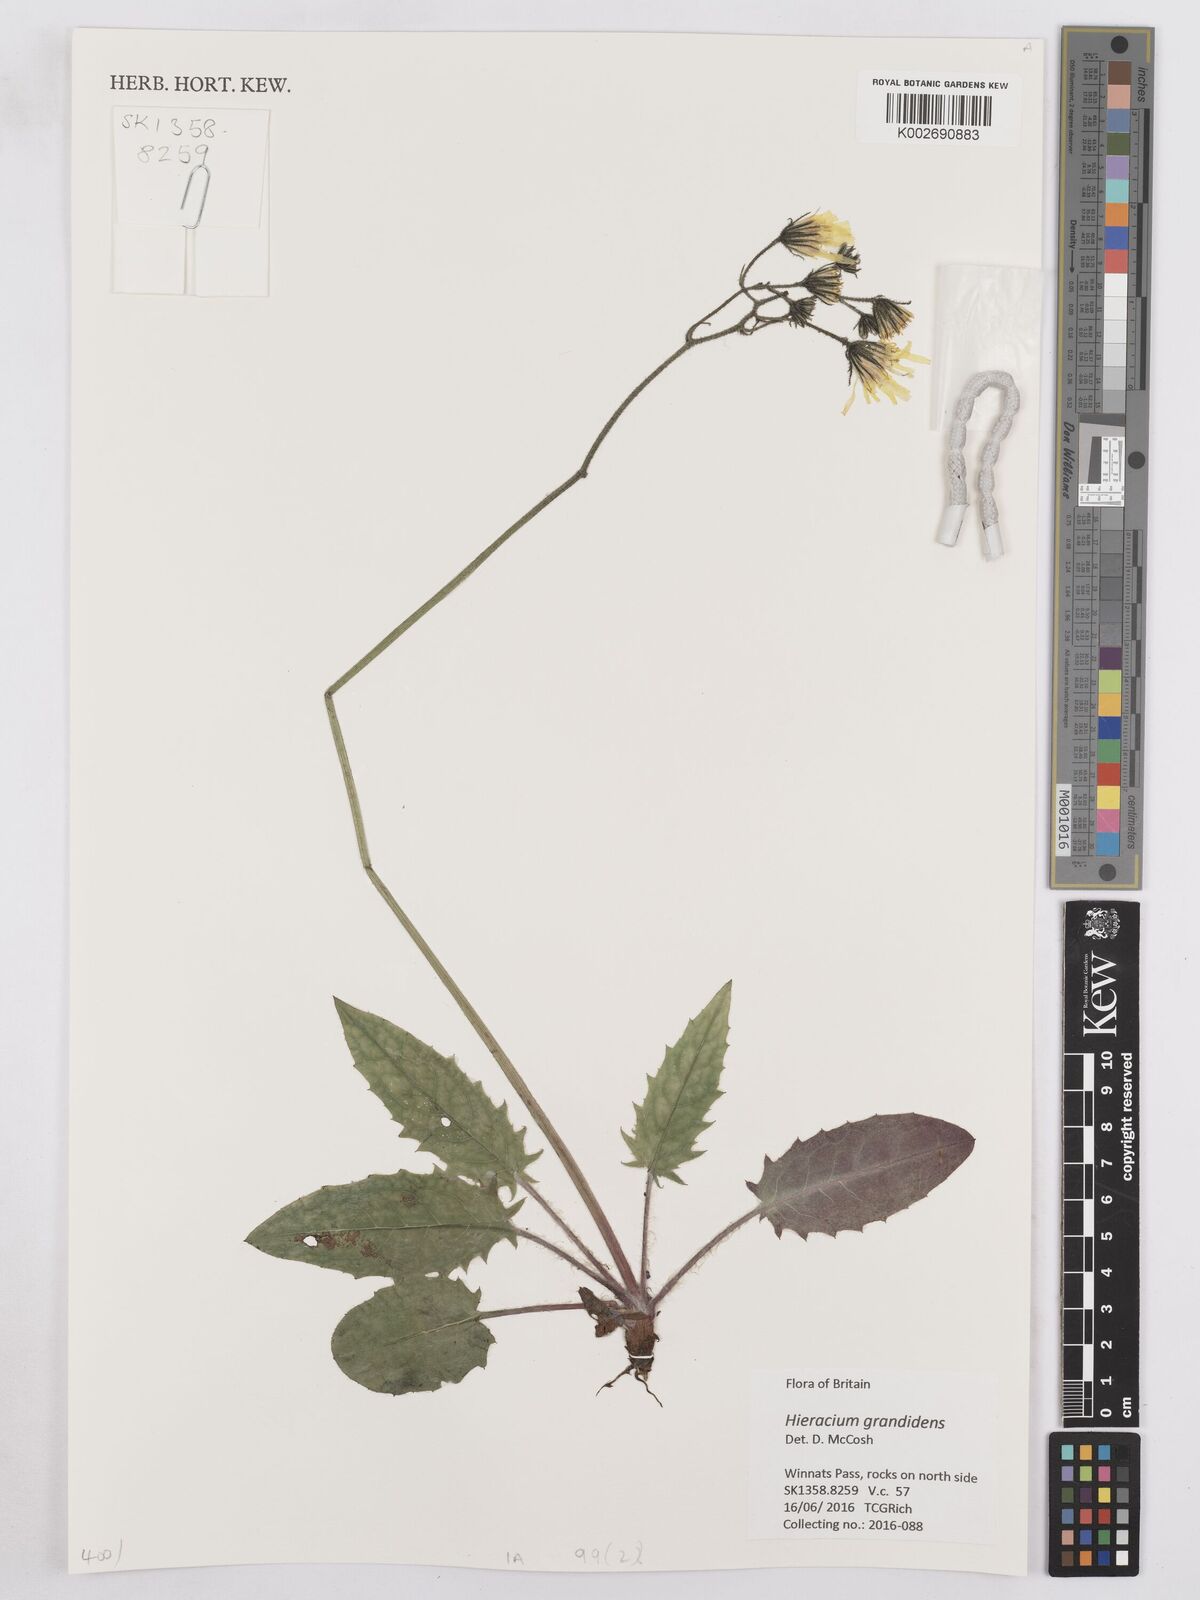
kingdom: Plantae
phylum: Tracheophyta
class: Magnoliopsida
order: Asterales
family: Asteraceae
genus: Hieracium
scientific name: Hieracium murorum
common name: Wall hawkweed
